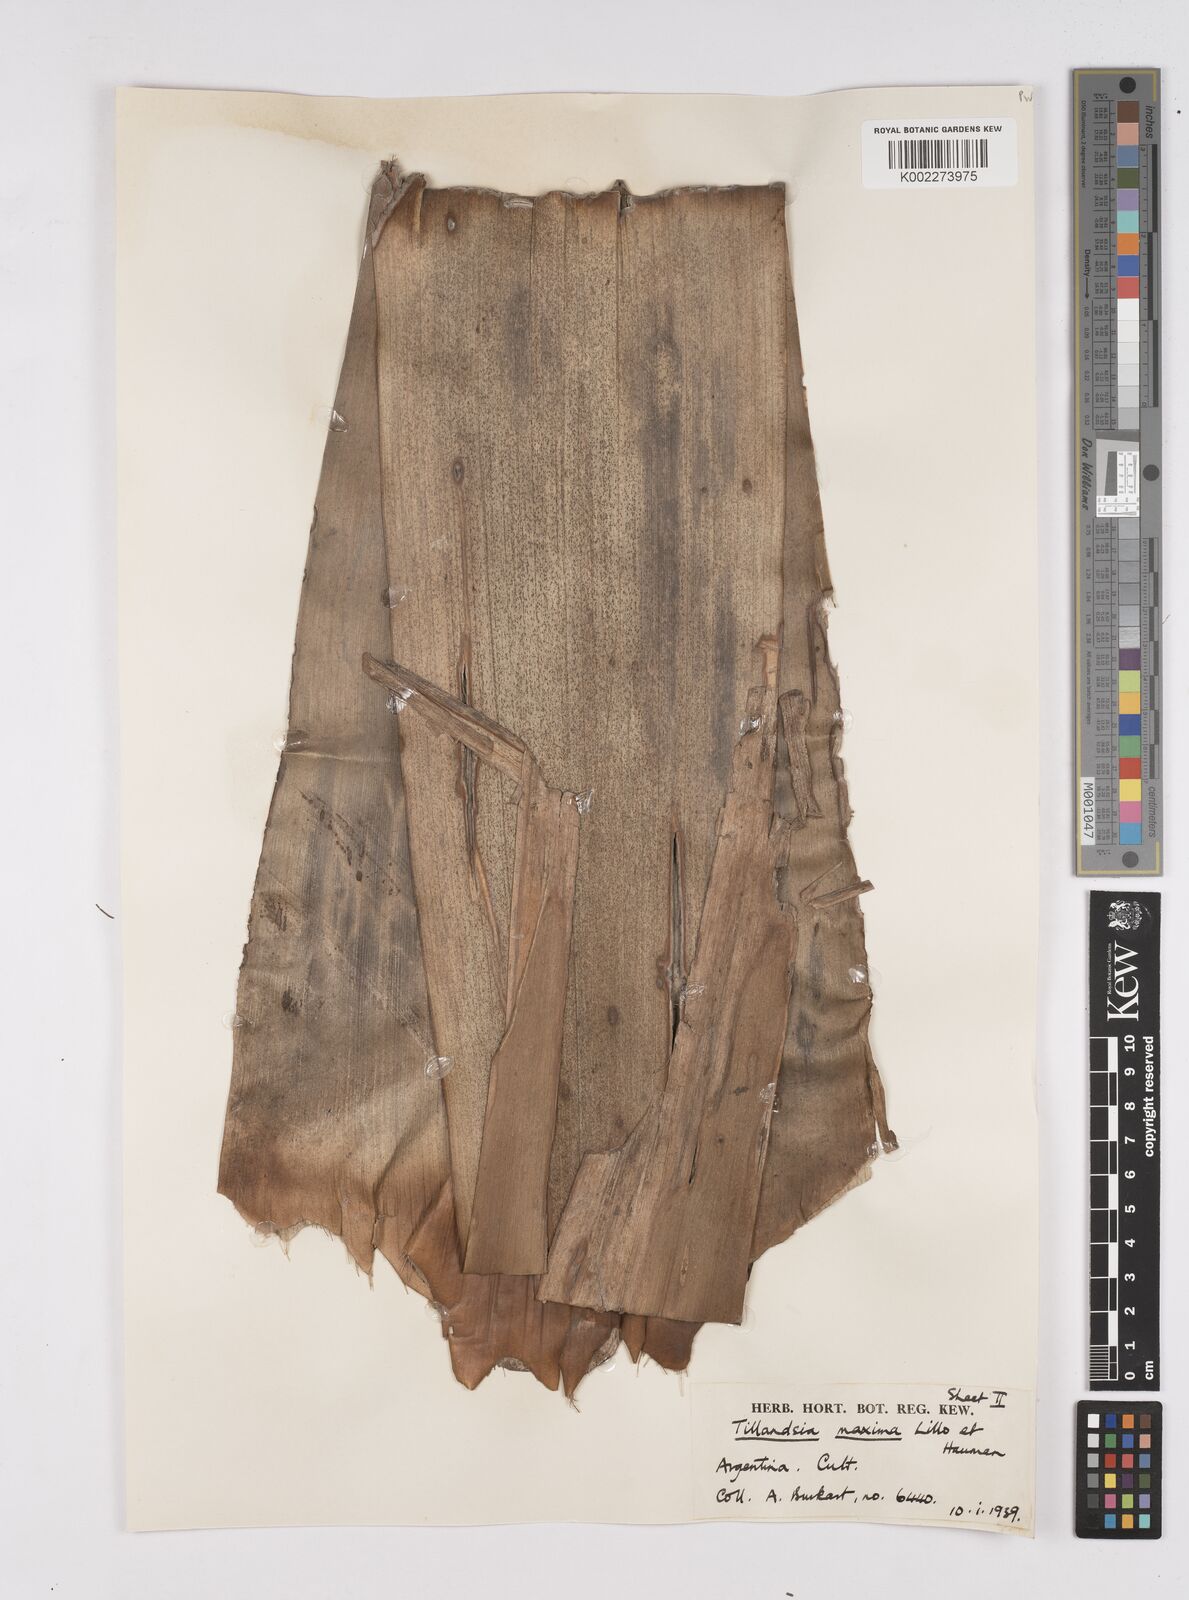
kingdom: Plantae
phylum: Tracheophyta
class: Liliopsida
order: Poales
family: Bromeliaceae
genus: Tillandsia
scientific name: Tillandsia
